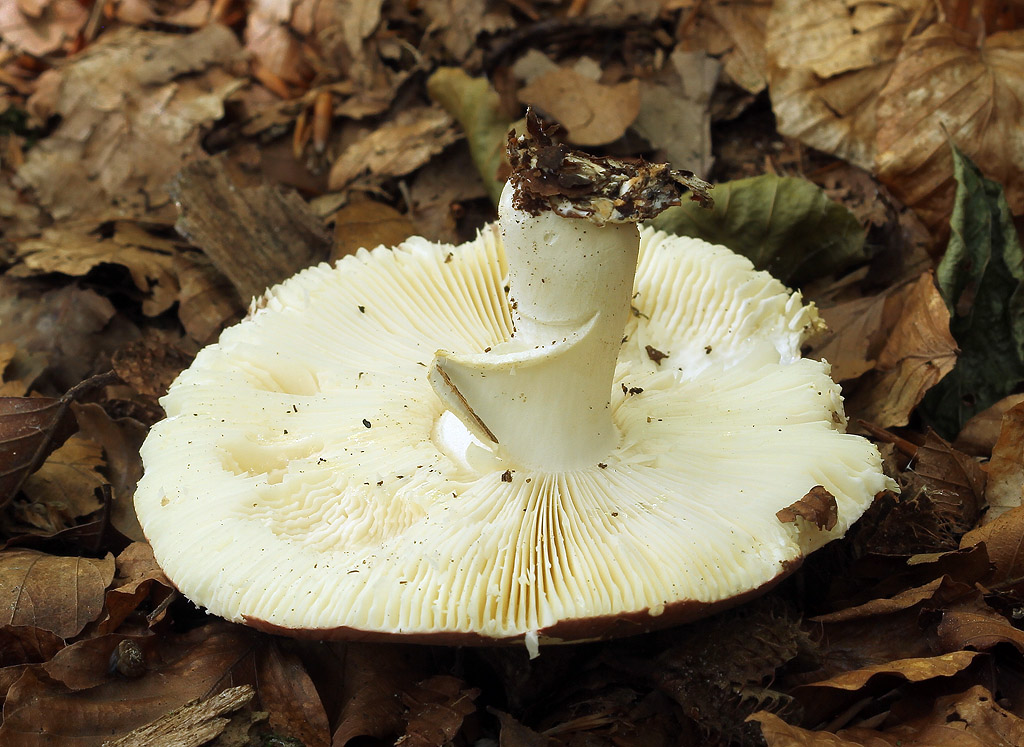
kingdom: Fungi
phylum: Basidiomycota
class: Agaricomycetes
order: Russulales
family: Russulaceae
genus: Russula
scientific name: Russula curtipes
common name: kortstokket skørhat
